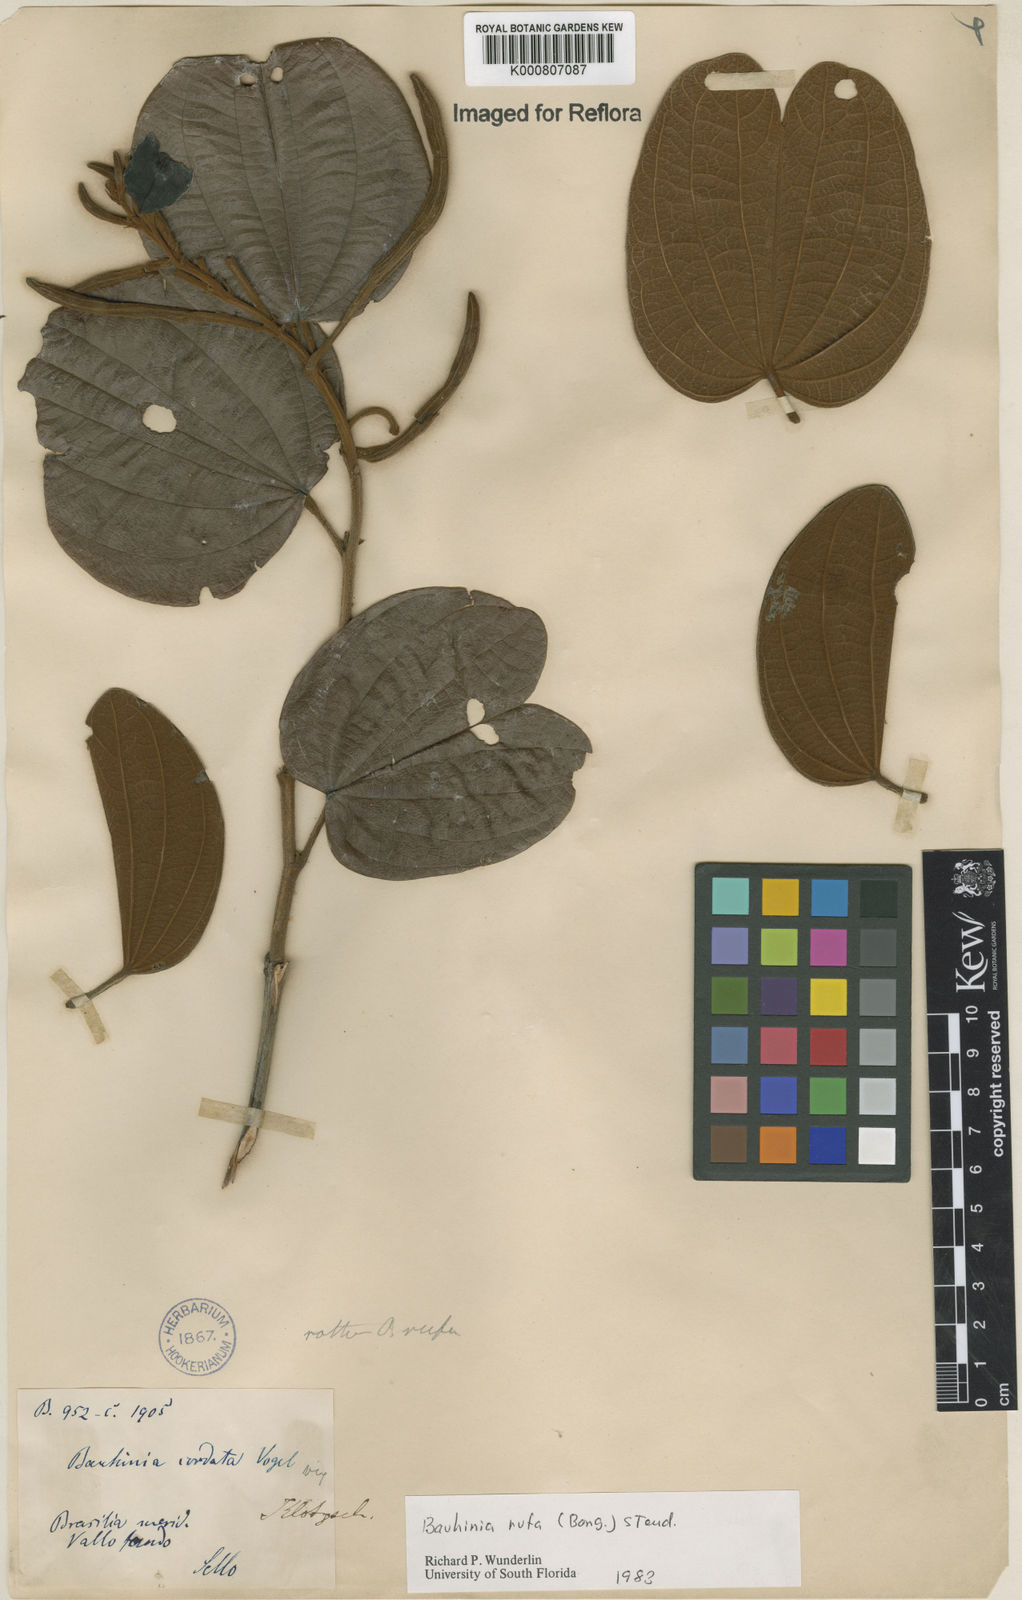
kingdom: Plantae
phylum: Tracheophyta
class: Magnoliopsida
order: Fabales
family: Fabaceae
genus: Bauhinia
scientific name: Bauhinia rufa
